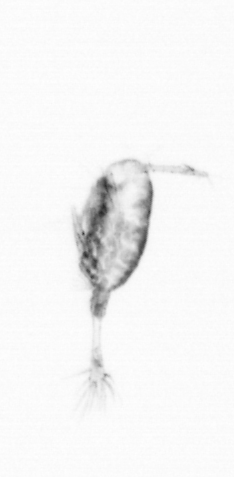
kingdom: Animalia
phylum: Arthropoda
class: Copepoda
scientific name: Copepoda
